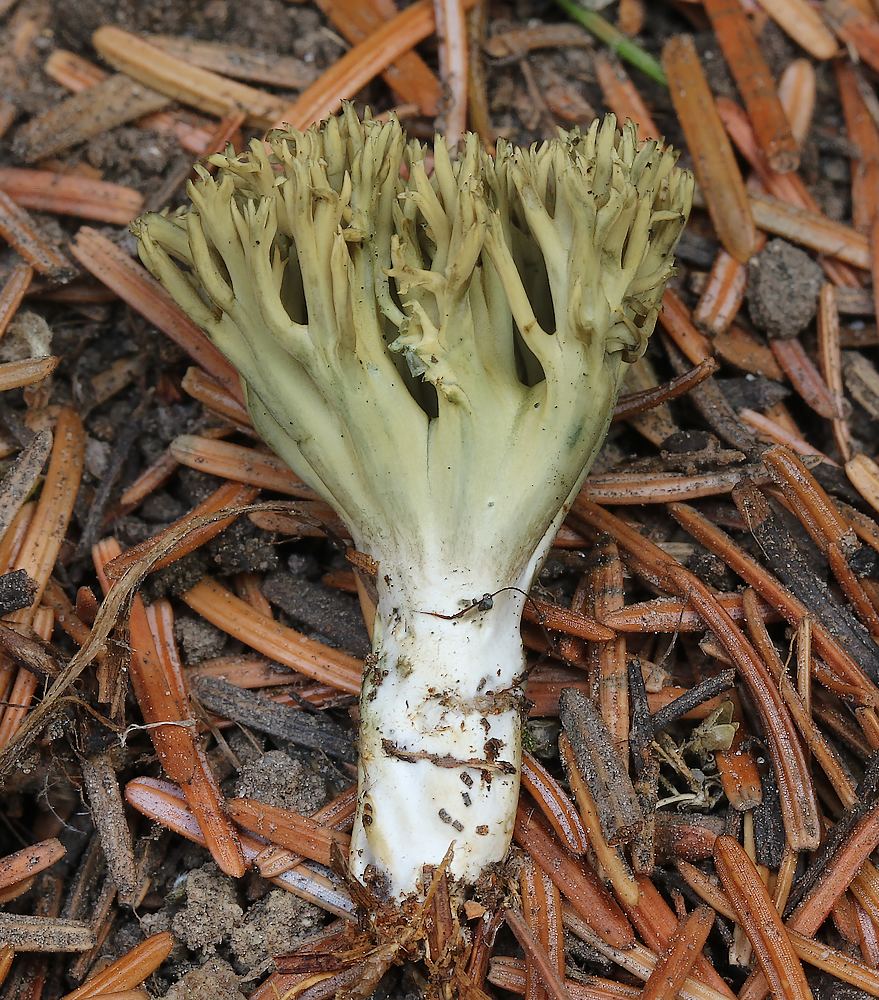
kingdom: Fungi
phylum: Basidiomycota
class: Agaricomycetes
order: Gomphales
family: Gomphaceae
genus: Phaeoclavulina
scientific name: Phaeoclavulina abietina
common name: gulgrøn koralsvamp
